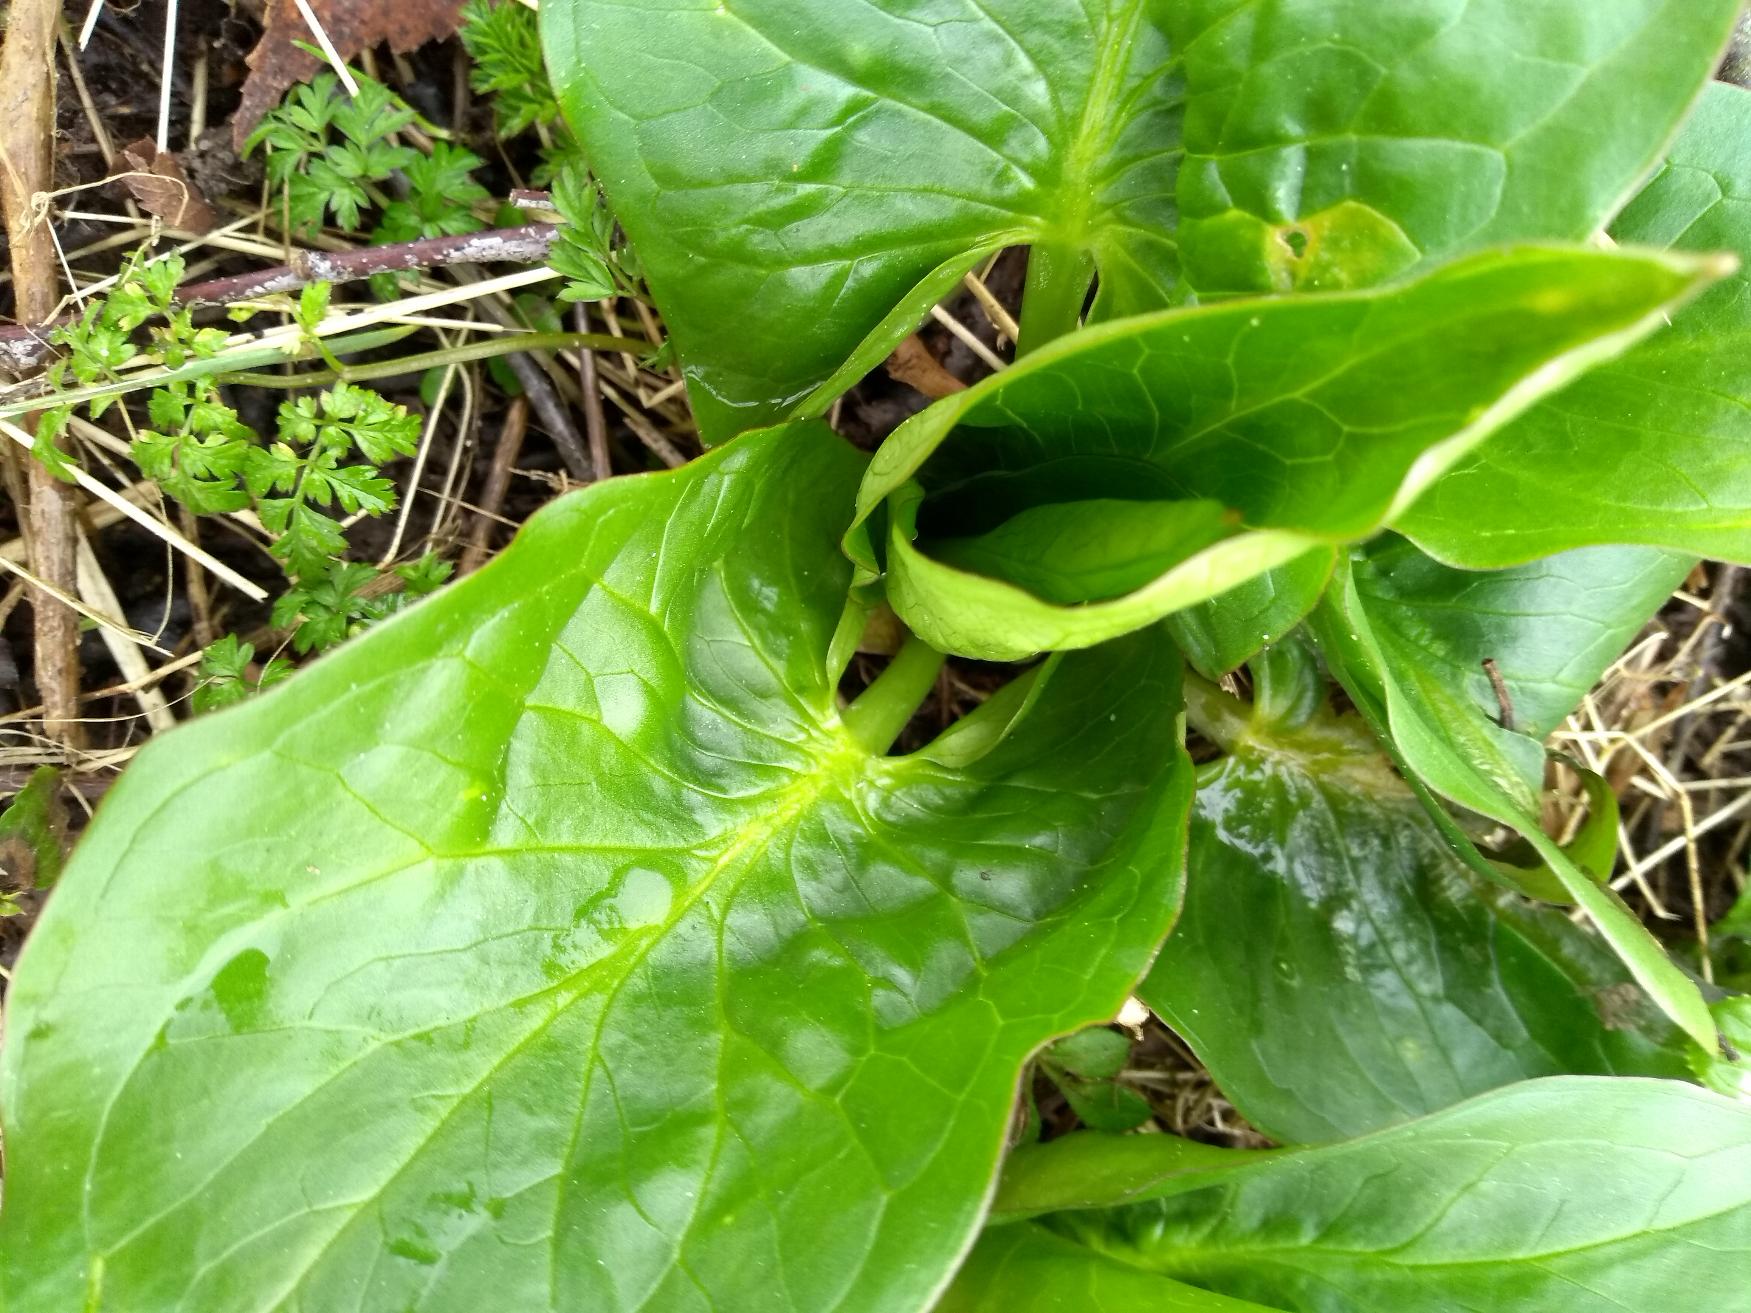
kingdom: Plantae
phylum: Tracheophyta
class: Liliopsida
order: Alismatales
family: Araceae
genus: Arum
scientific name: Arum
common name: Arumslægten
